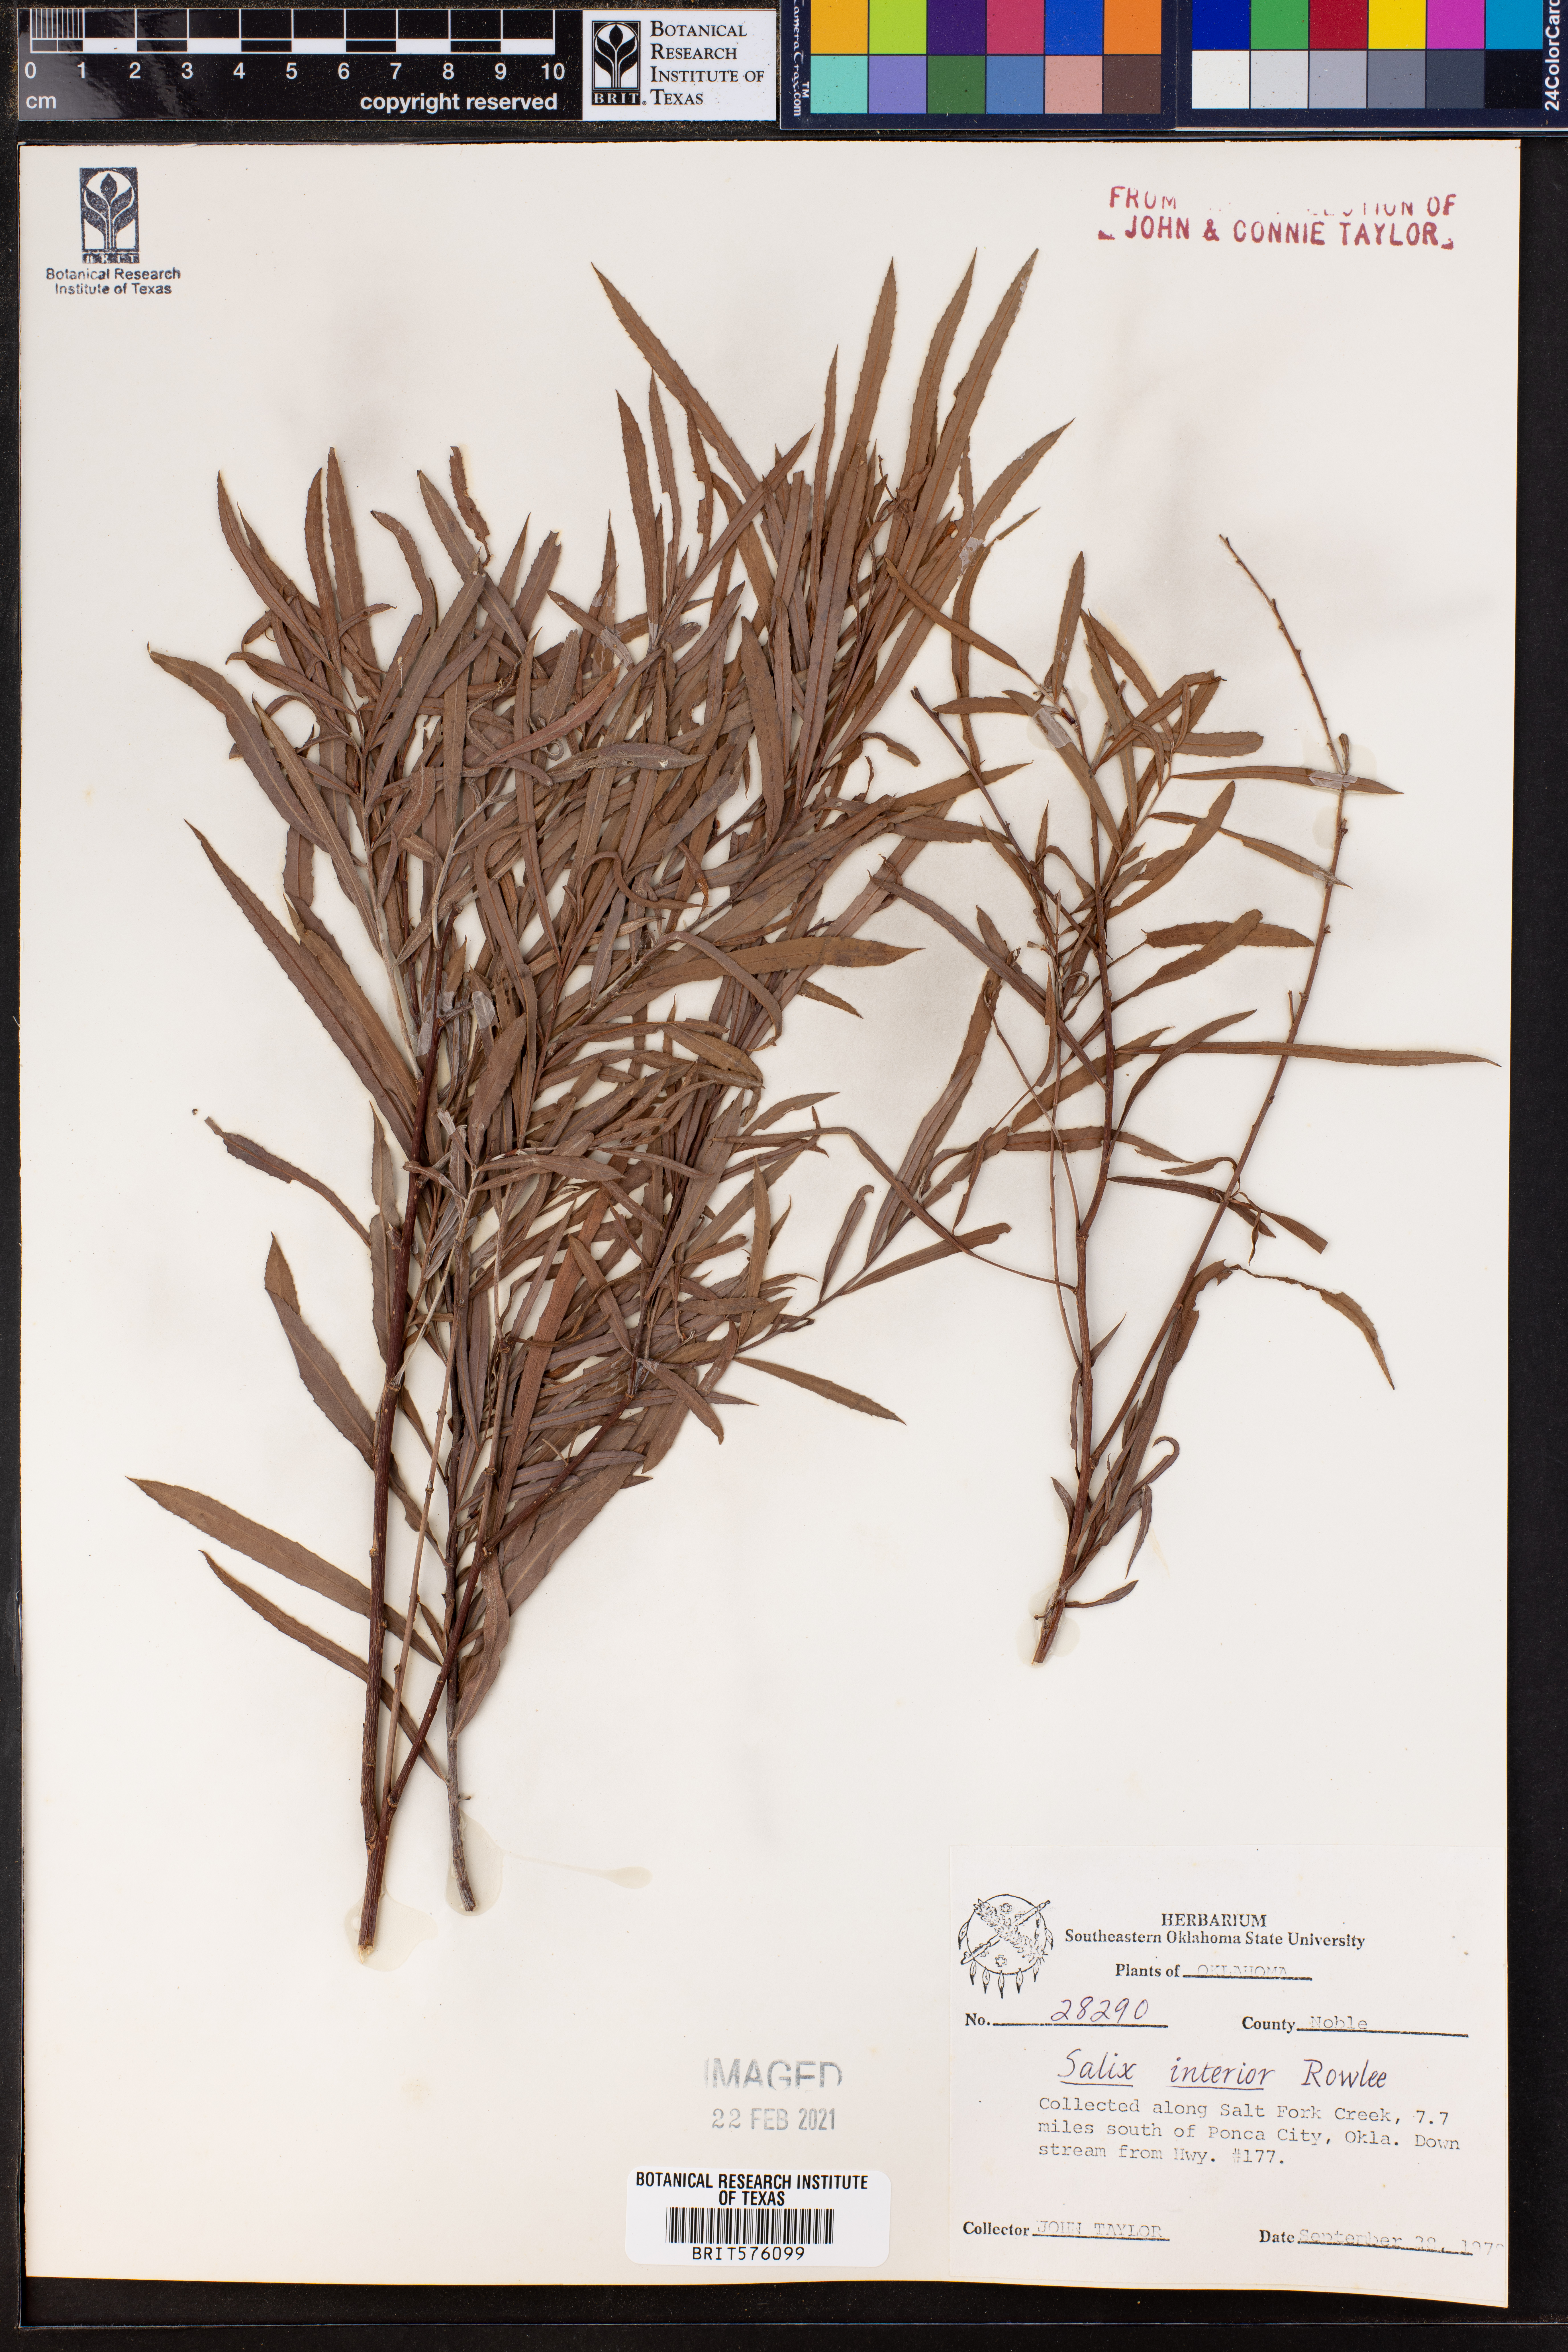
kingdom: Plantae
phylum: Tracheophyta
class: Magnoliopsida
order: Malpighiales
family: Salicaceae
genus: Salix
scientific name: Salix interior
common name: Sandbar willow
